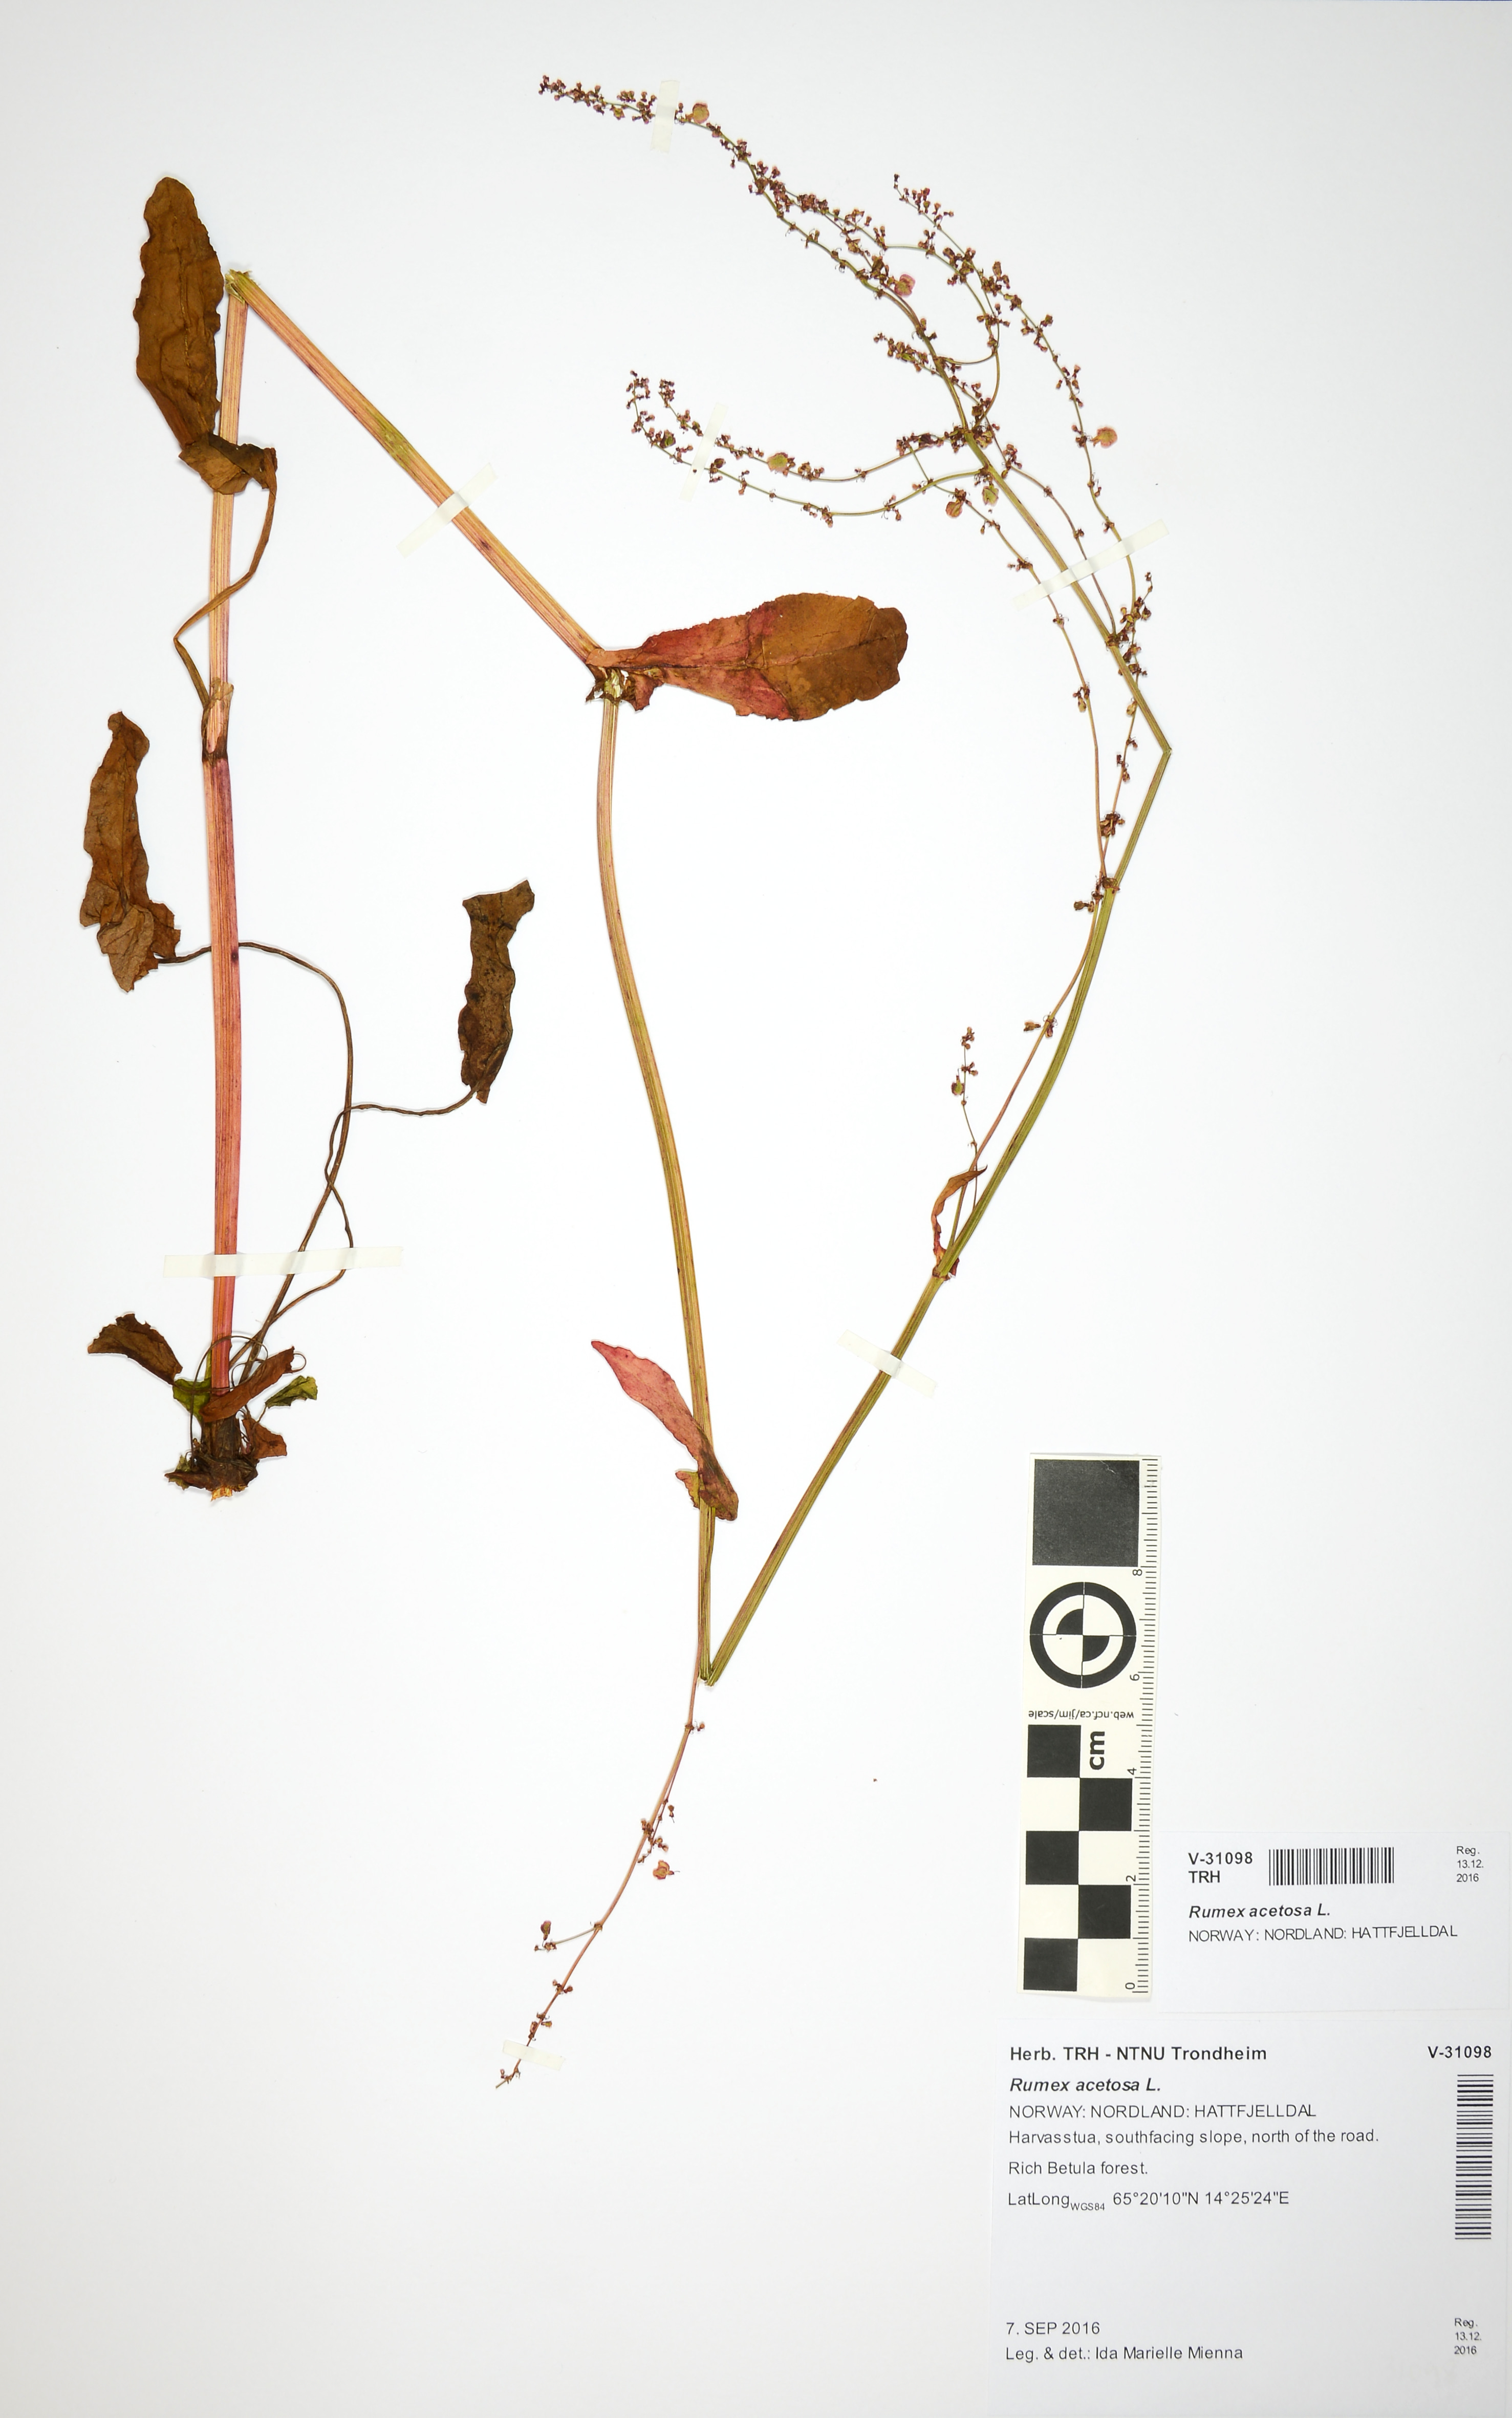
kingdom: Plantae
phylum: Tracheophyta
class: Magnoliopsida
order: Caryophyllales
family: Polygonaceae
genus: Rumex
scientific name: Rumex acetosa
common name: Garden sorrel
